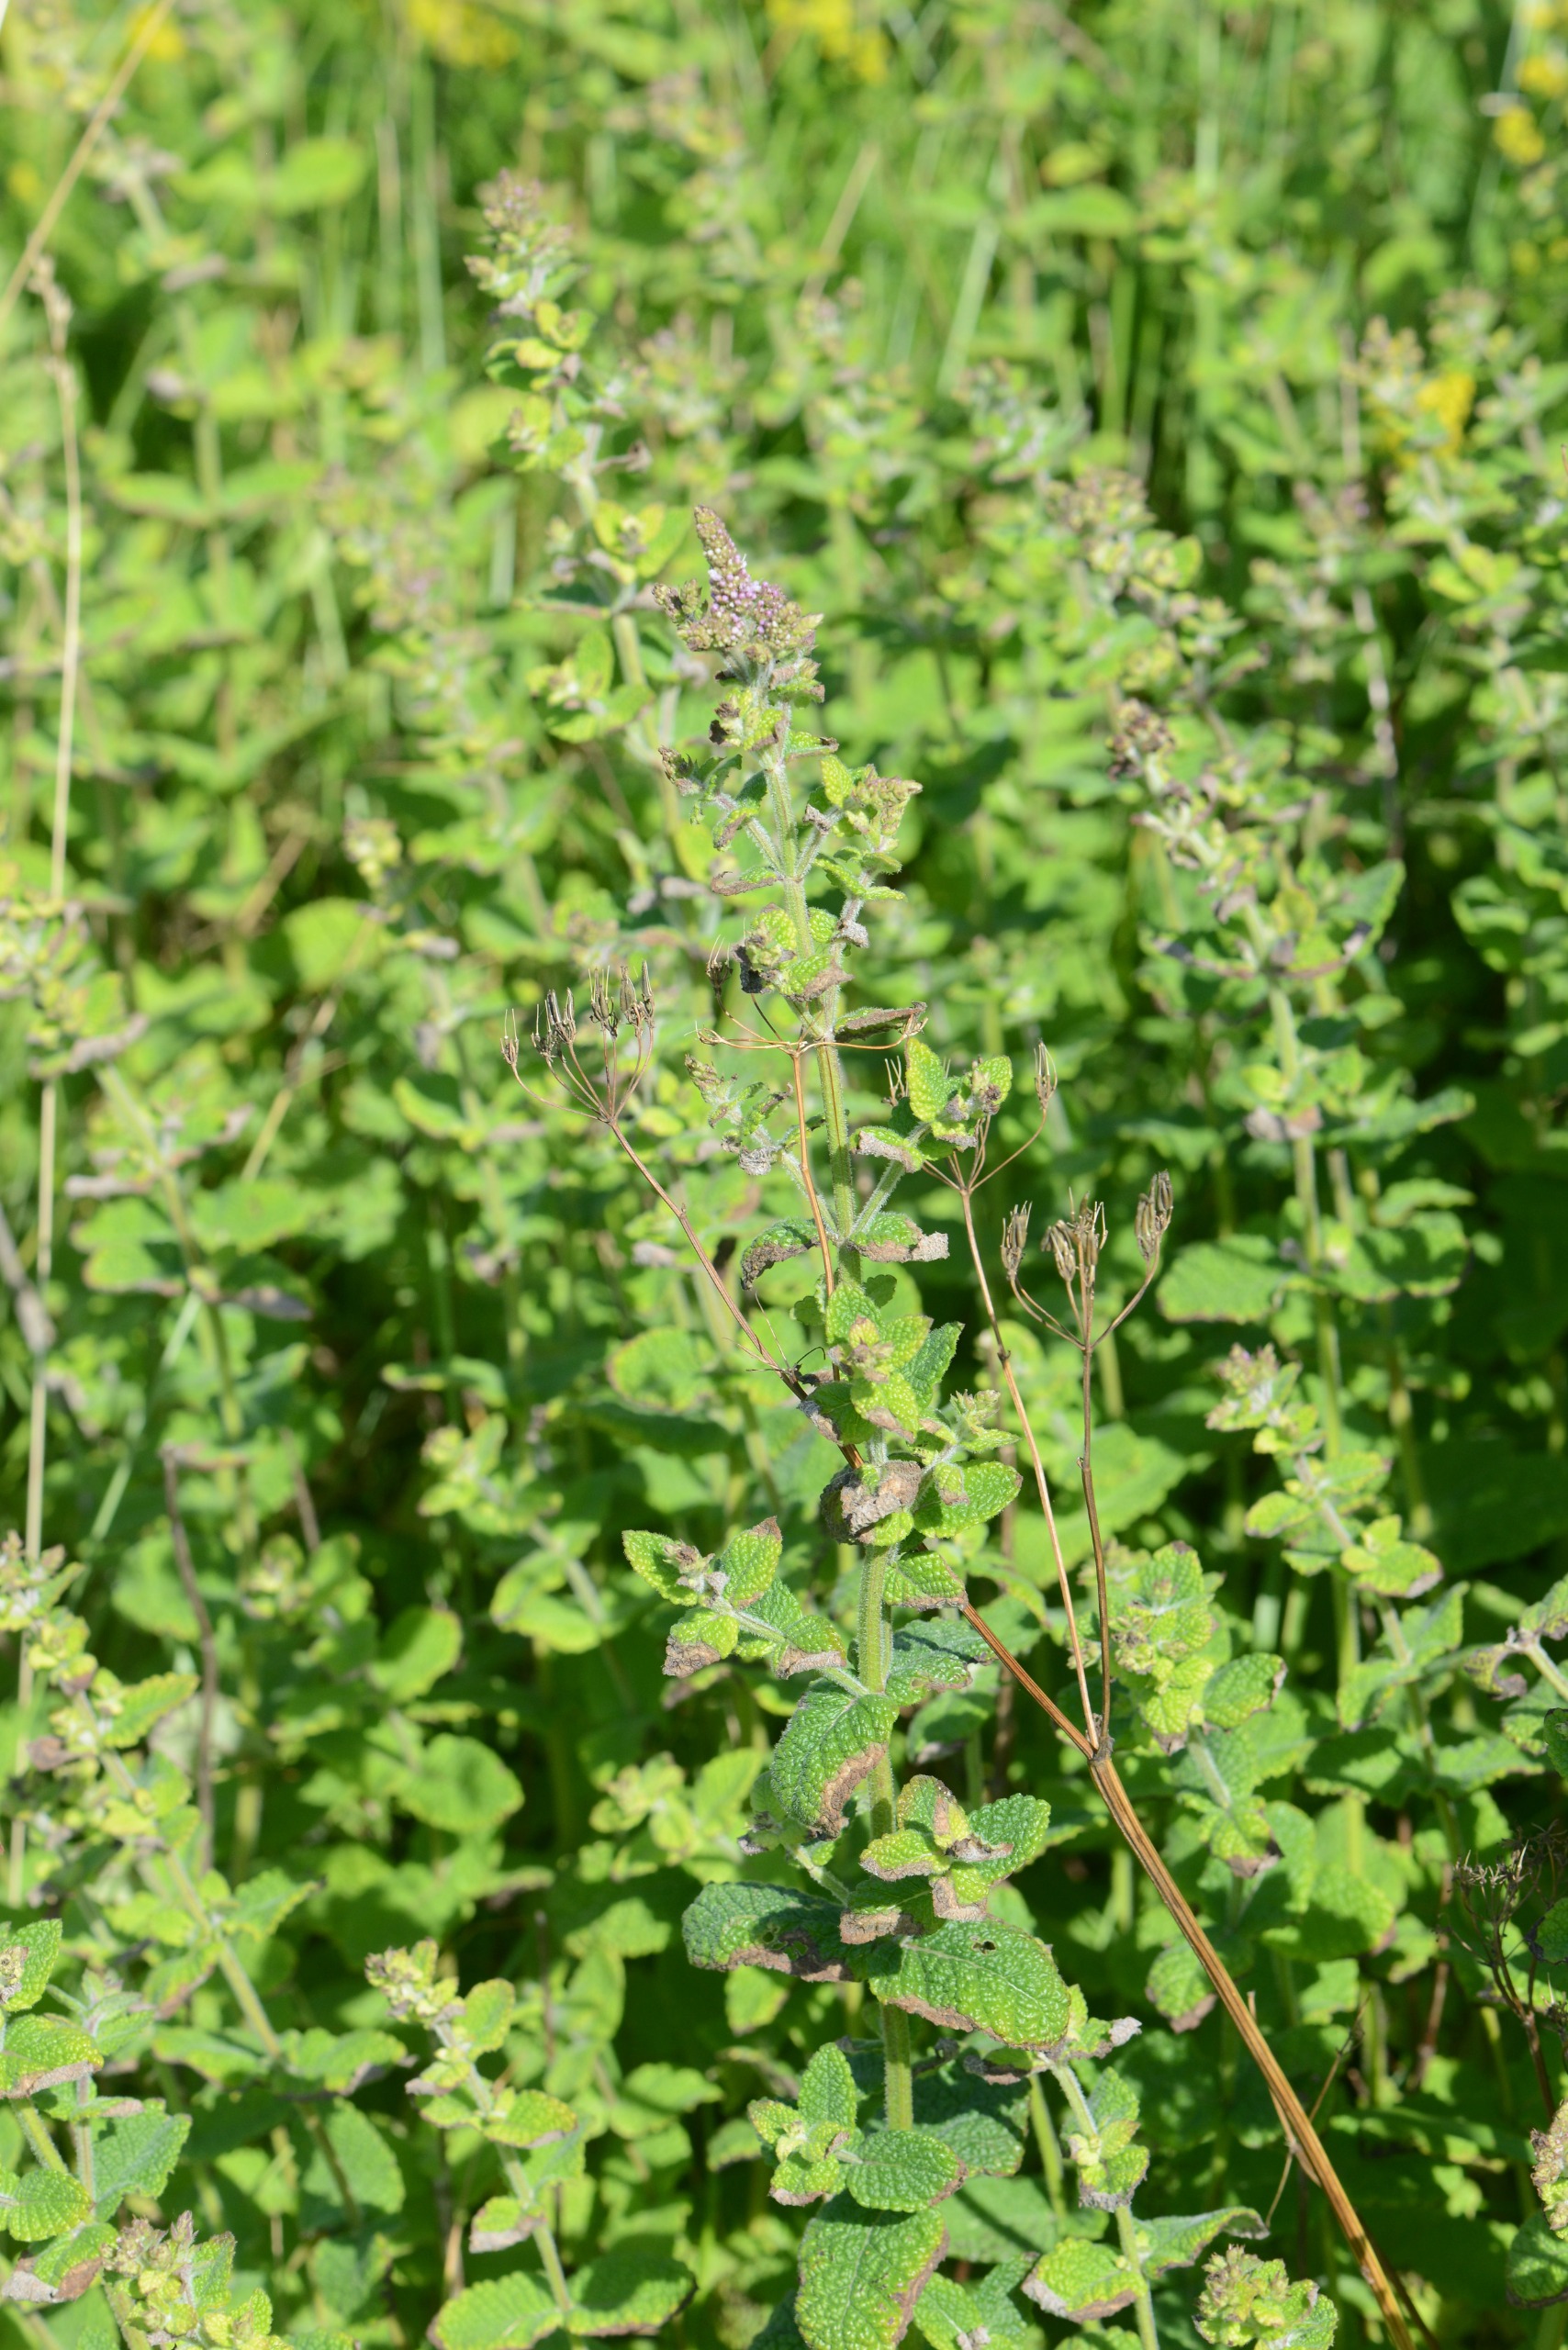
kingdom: Plantae
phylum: Tracheophyta
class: Magnoliopsida
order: Lamiales
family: Lamiaceae
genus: Mentha
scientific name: Mentha suaveolens
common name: Rundbladet mynte
